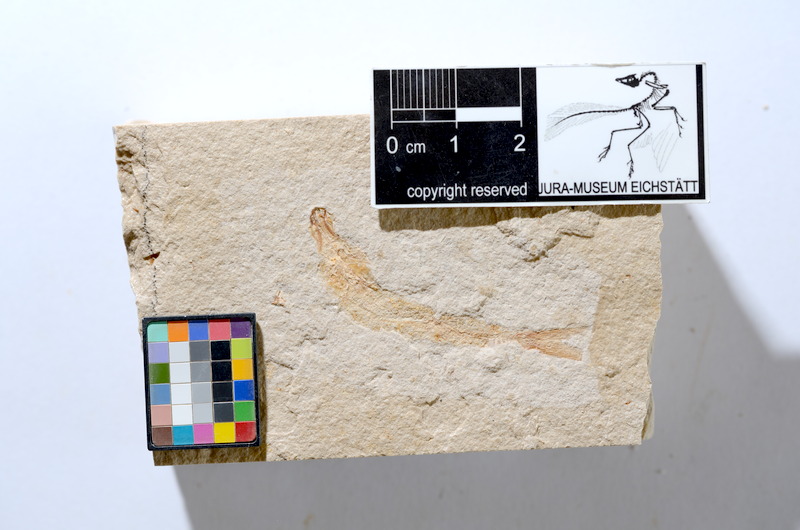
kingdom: Animalia
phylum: Chordata
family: Ascalaboidae
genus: Tharsis
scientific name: Tharsis dubius
